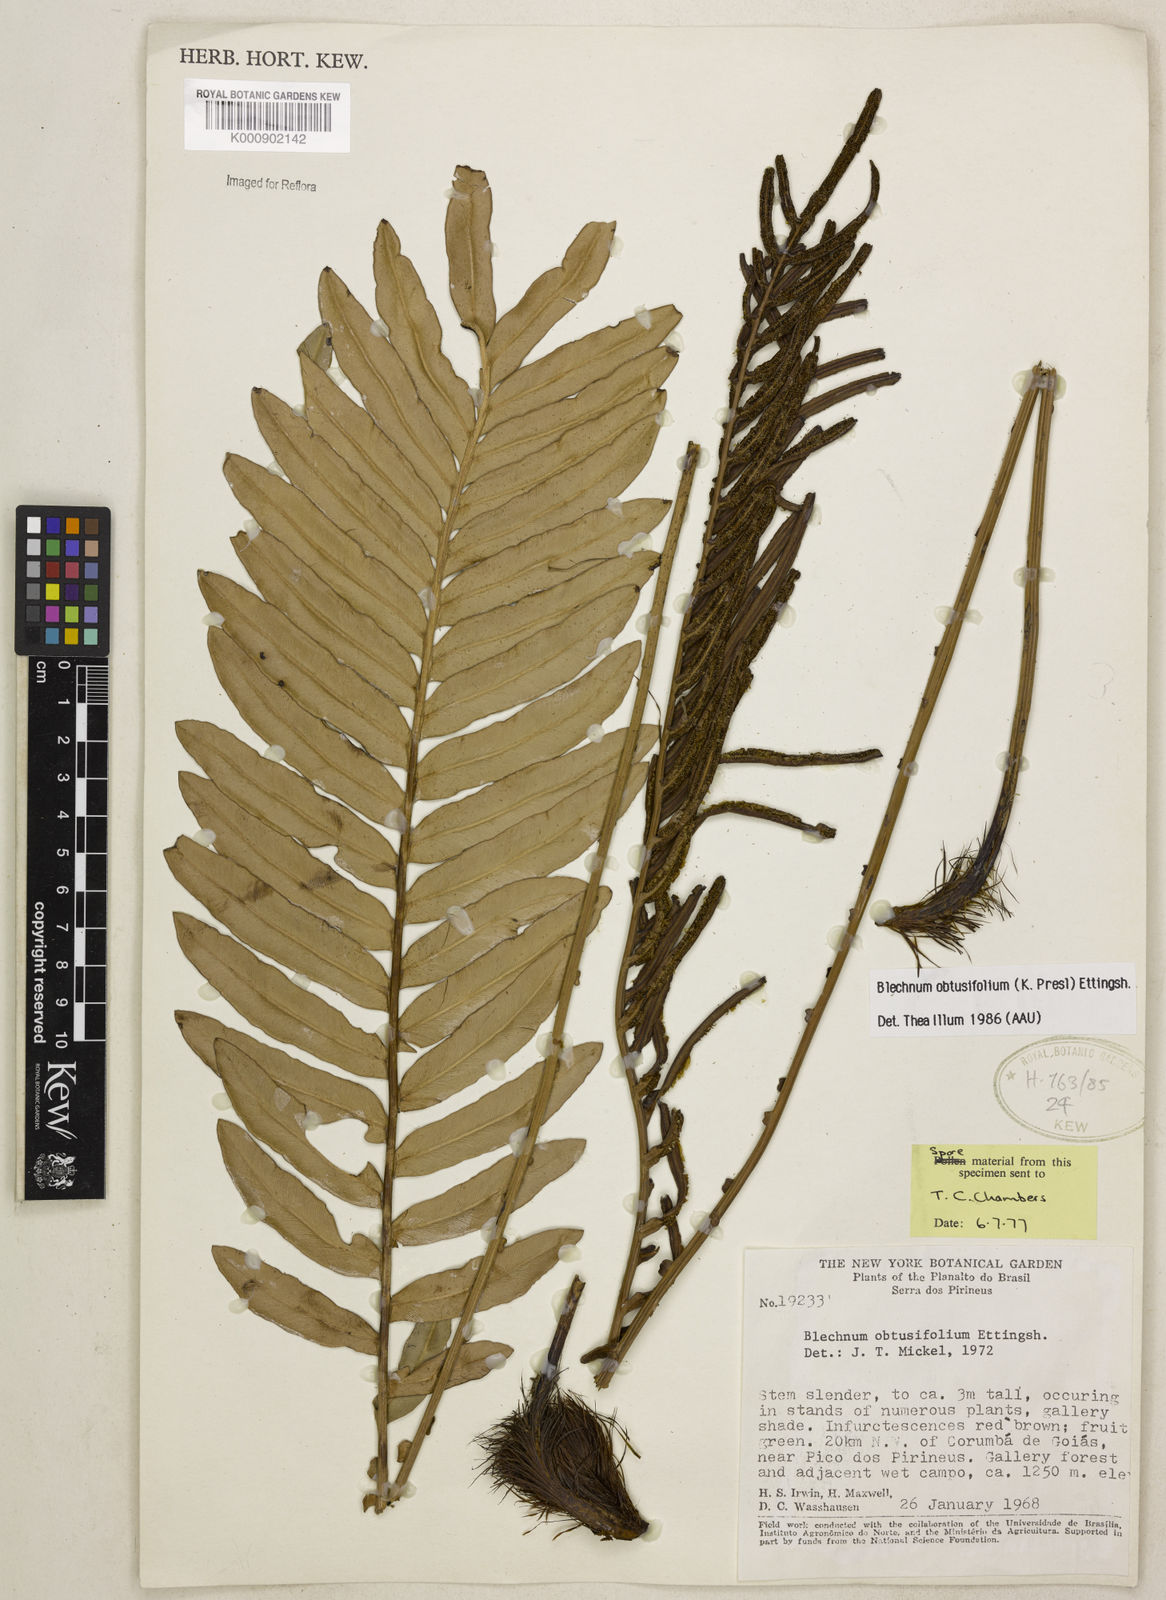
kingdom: Plantae
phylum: Tracheophyta
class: Polypodiopsida
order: Polypodiales
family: Blechnaceae
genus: Lomariocycas
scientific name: Lomariocycas obtusifolia
